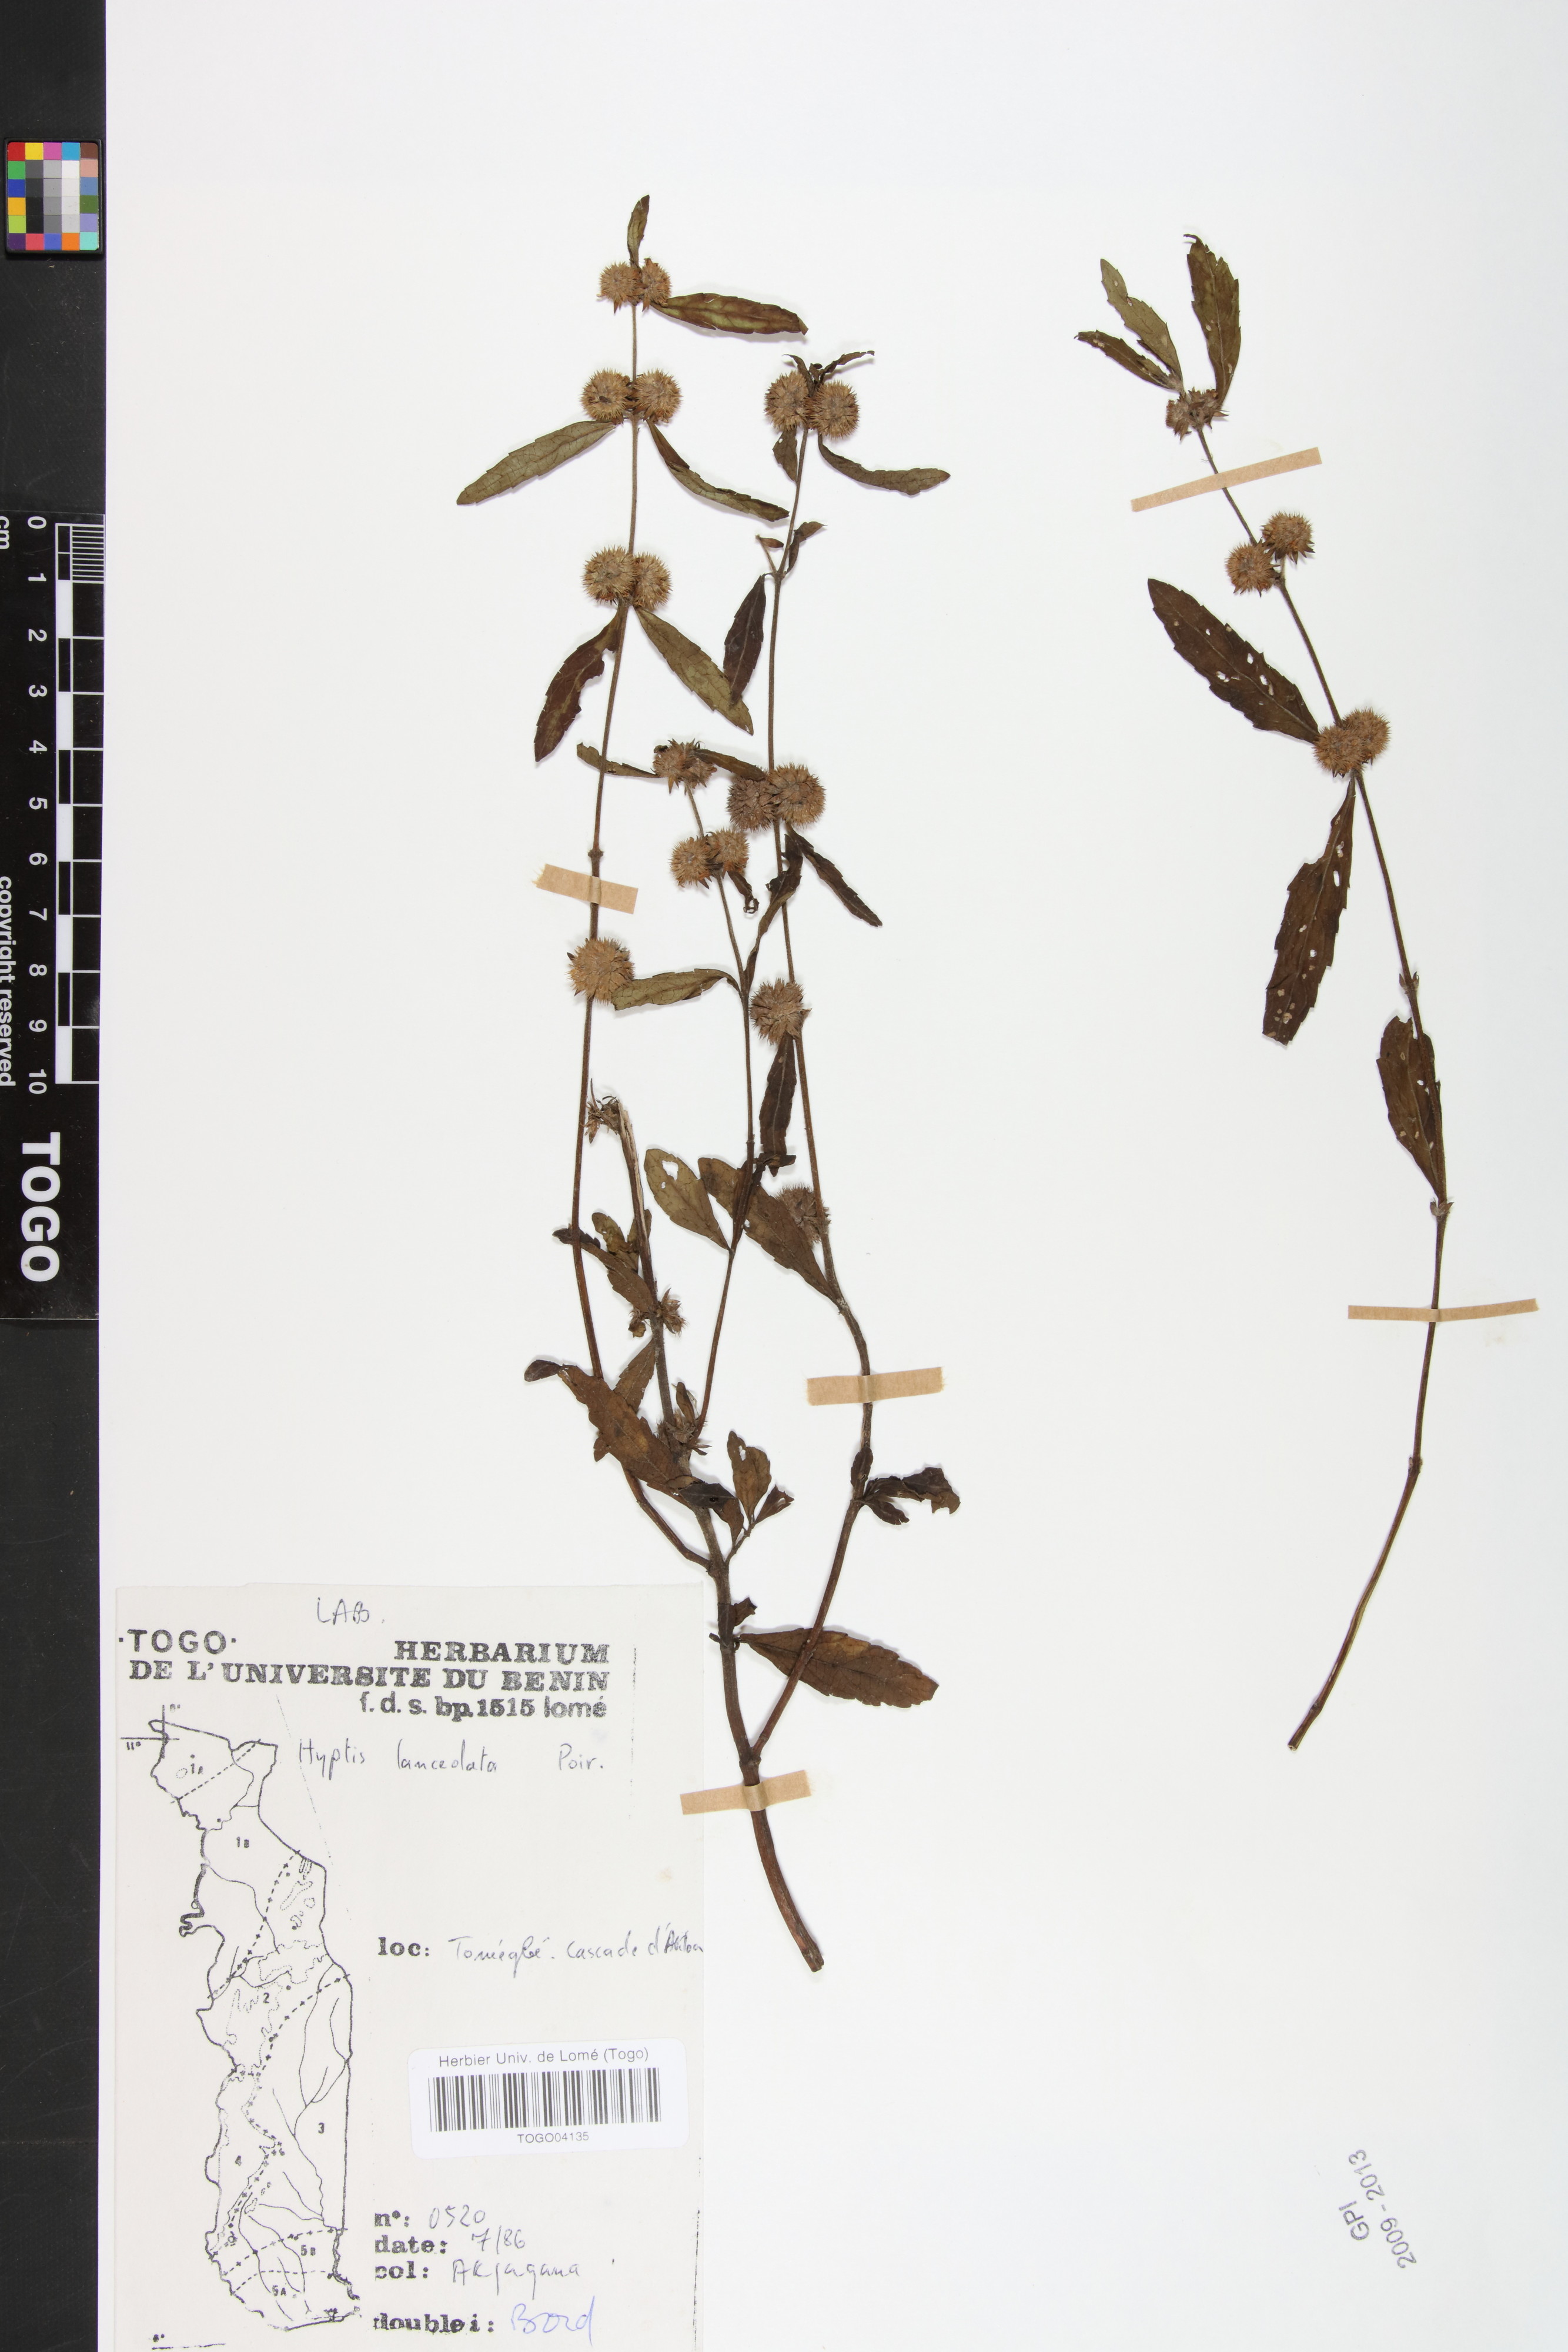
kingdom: Plantae
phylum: Tracheophyta
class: Magnoliopsida
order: Lamiales
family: Lamiaceae
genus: Hyptis
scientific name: Hyptis lanceolata
